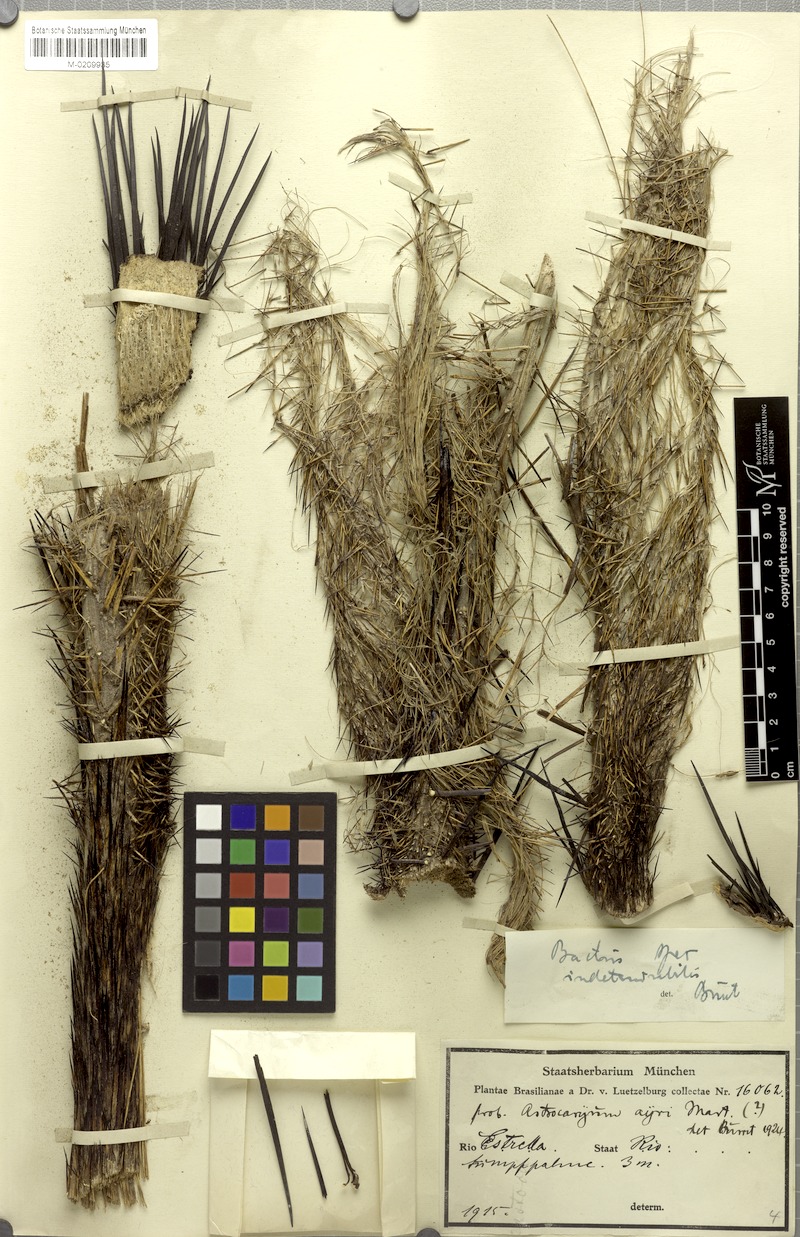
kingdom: Plantae
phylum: Tracheophyta
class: Liliopsida
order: Arecales
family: Arecaceae
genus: Bactris
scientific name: Bactris
